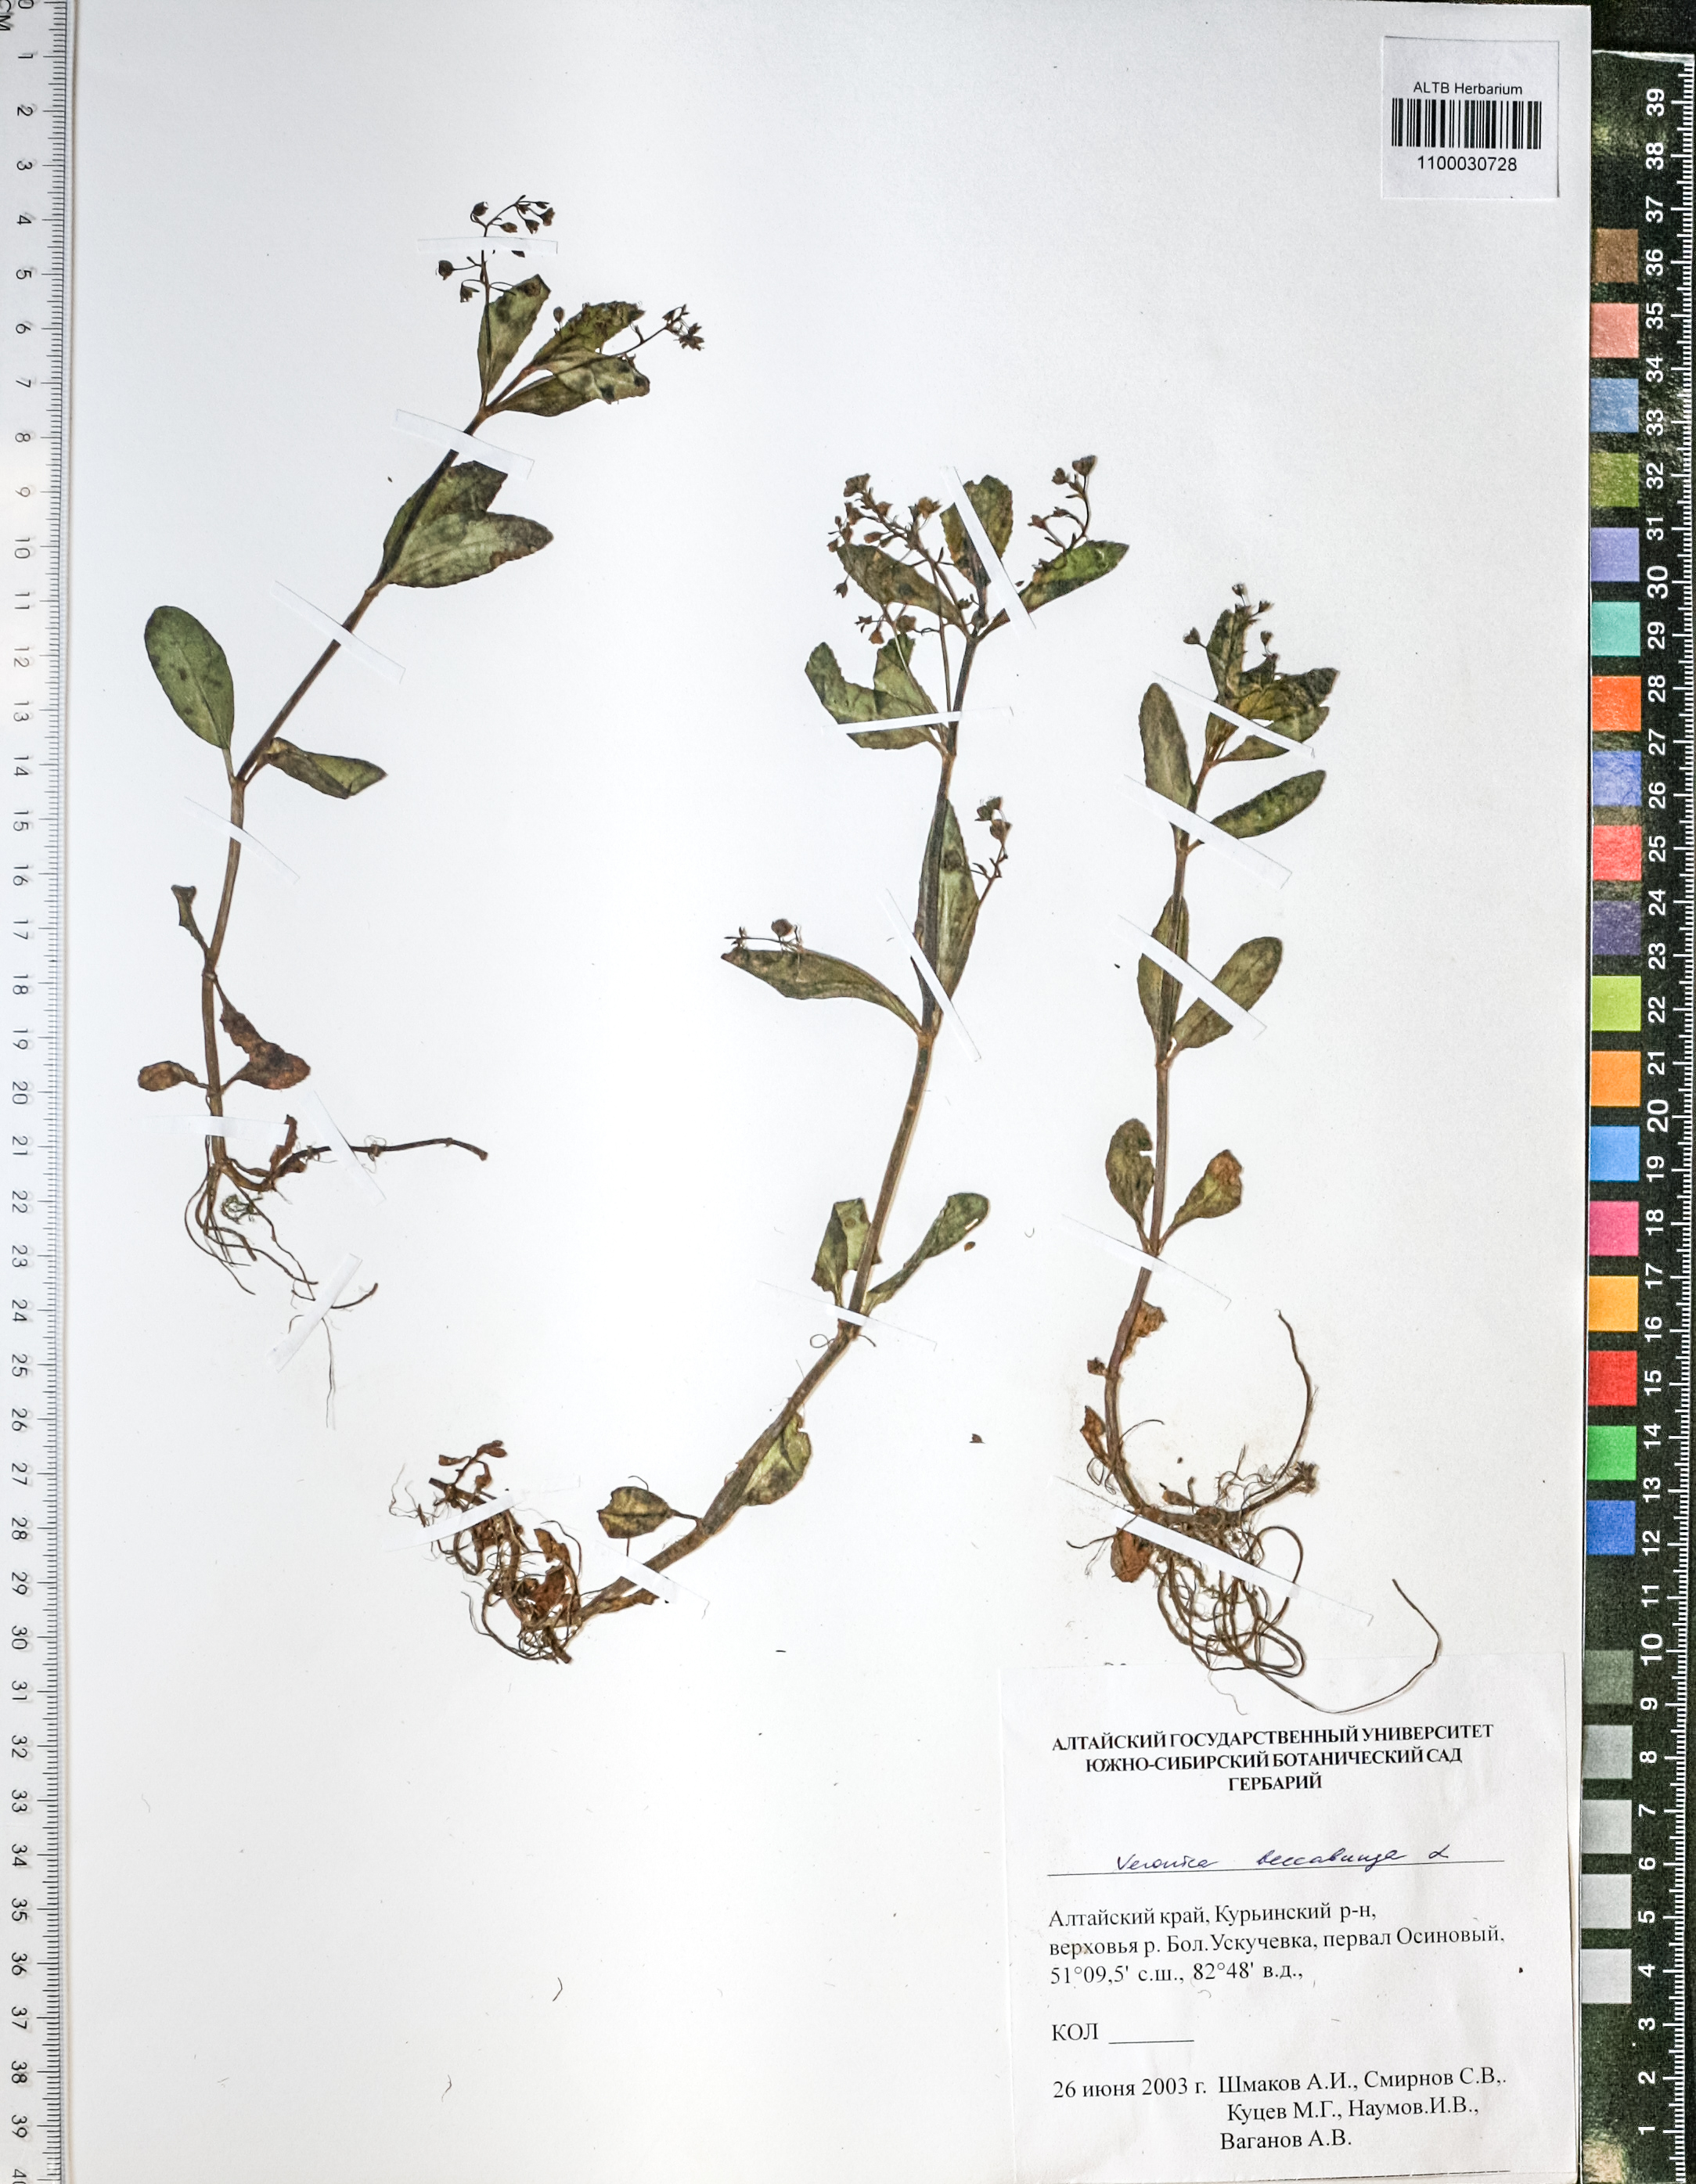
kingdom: Plantae
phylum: Tracheophyta
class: Magnoliopsida
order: Lamiales
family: Plantaginaceae
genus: Veronica
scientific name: Veronica beccabunga
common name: Brooklime
